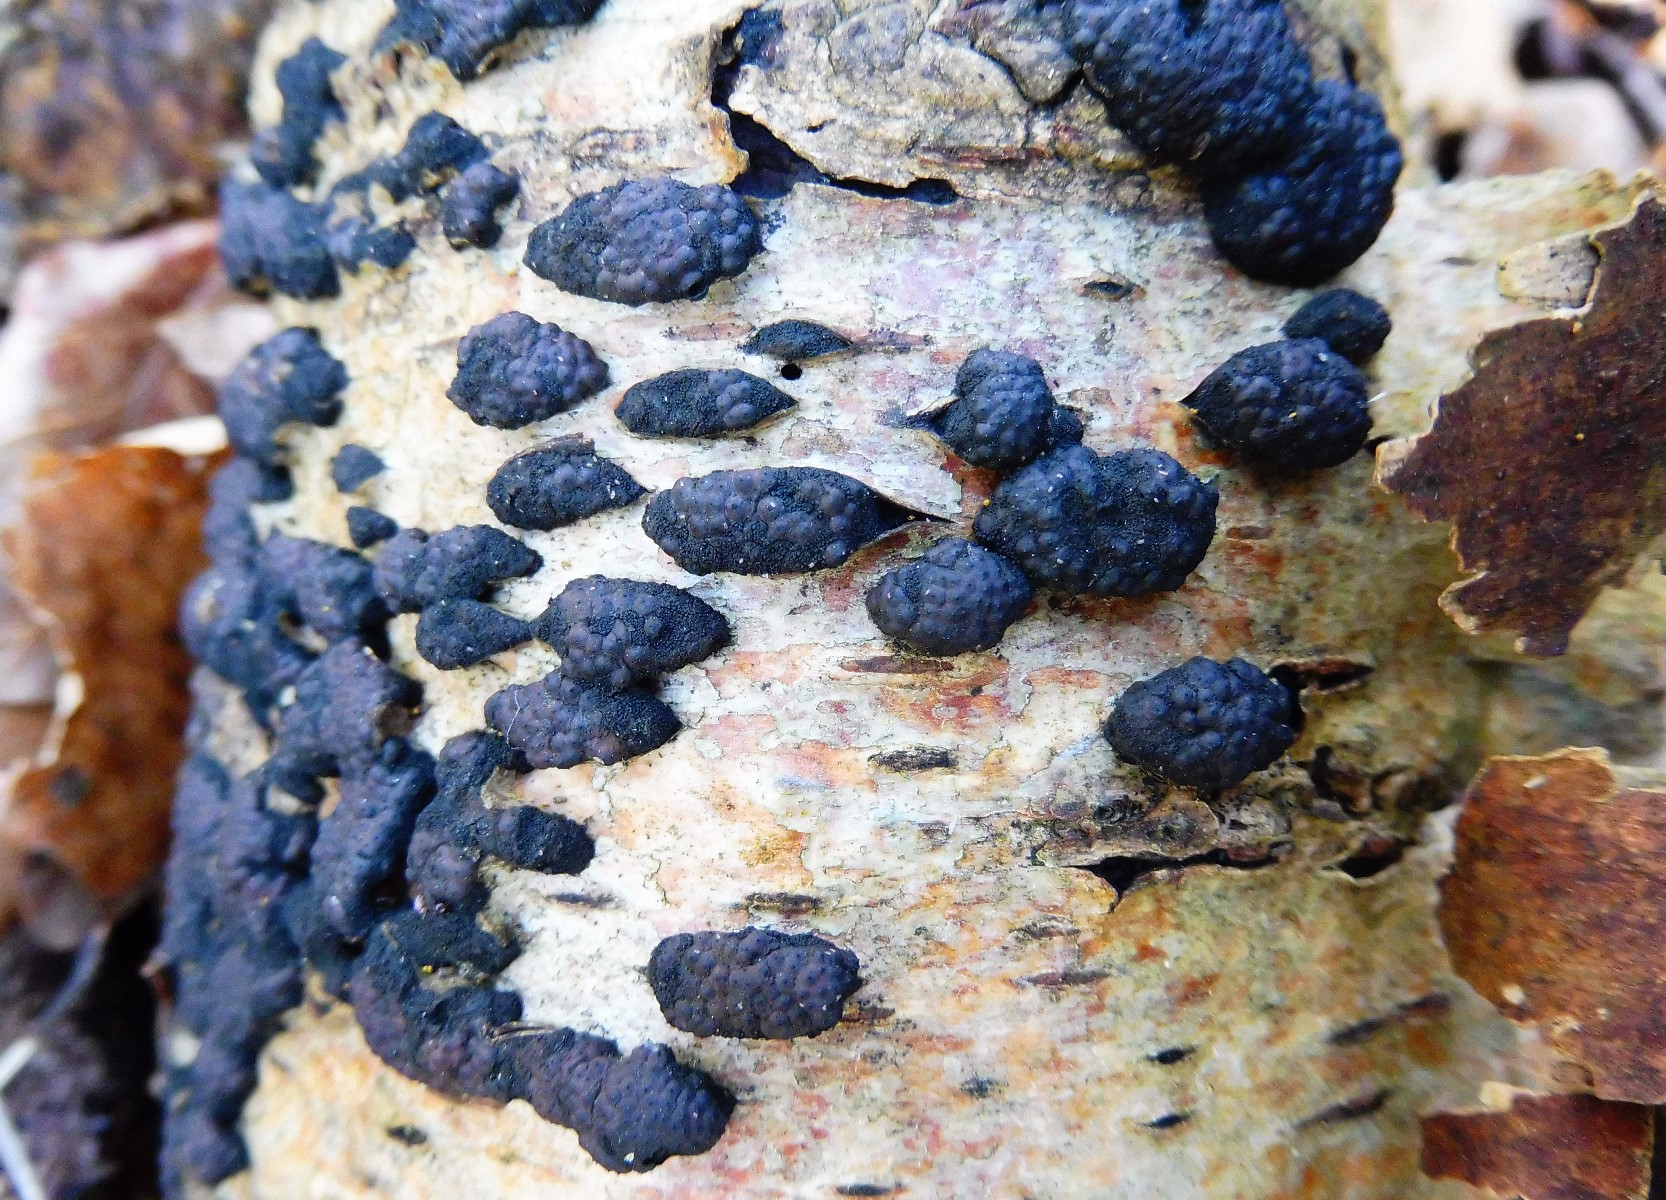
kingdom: Fungi
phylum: Ascomycota
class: Sordariomycetes
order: Xylariales
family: Hypoxylaceae
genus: Jackrogersella
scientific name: Jackrogersella multiformis
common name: foranderlig kulbær
